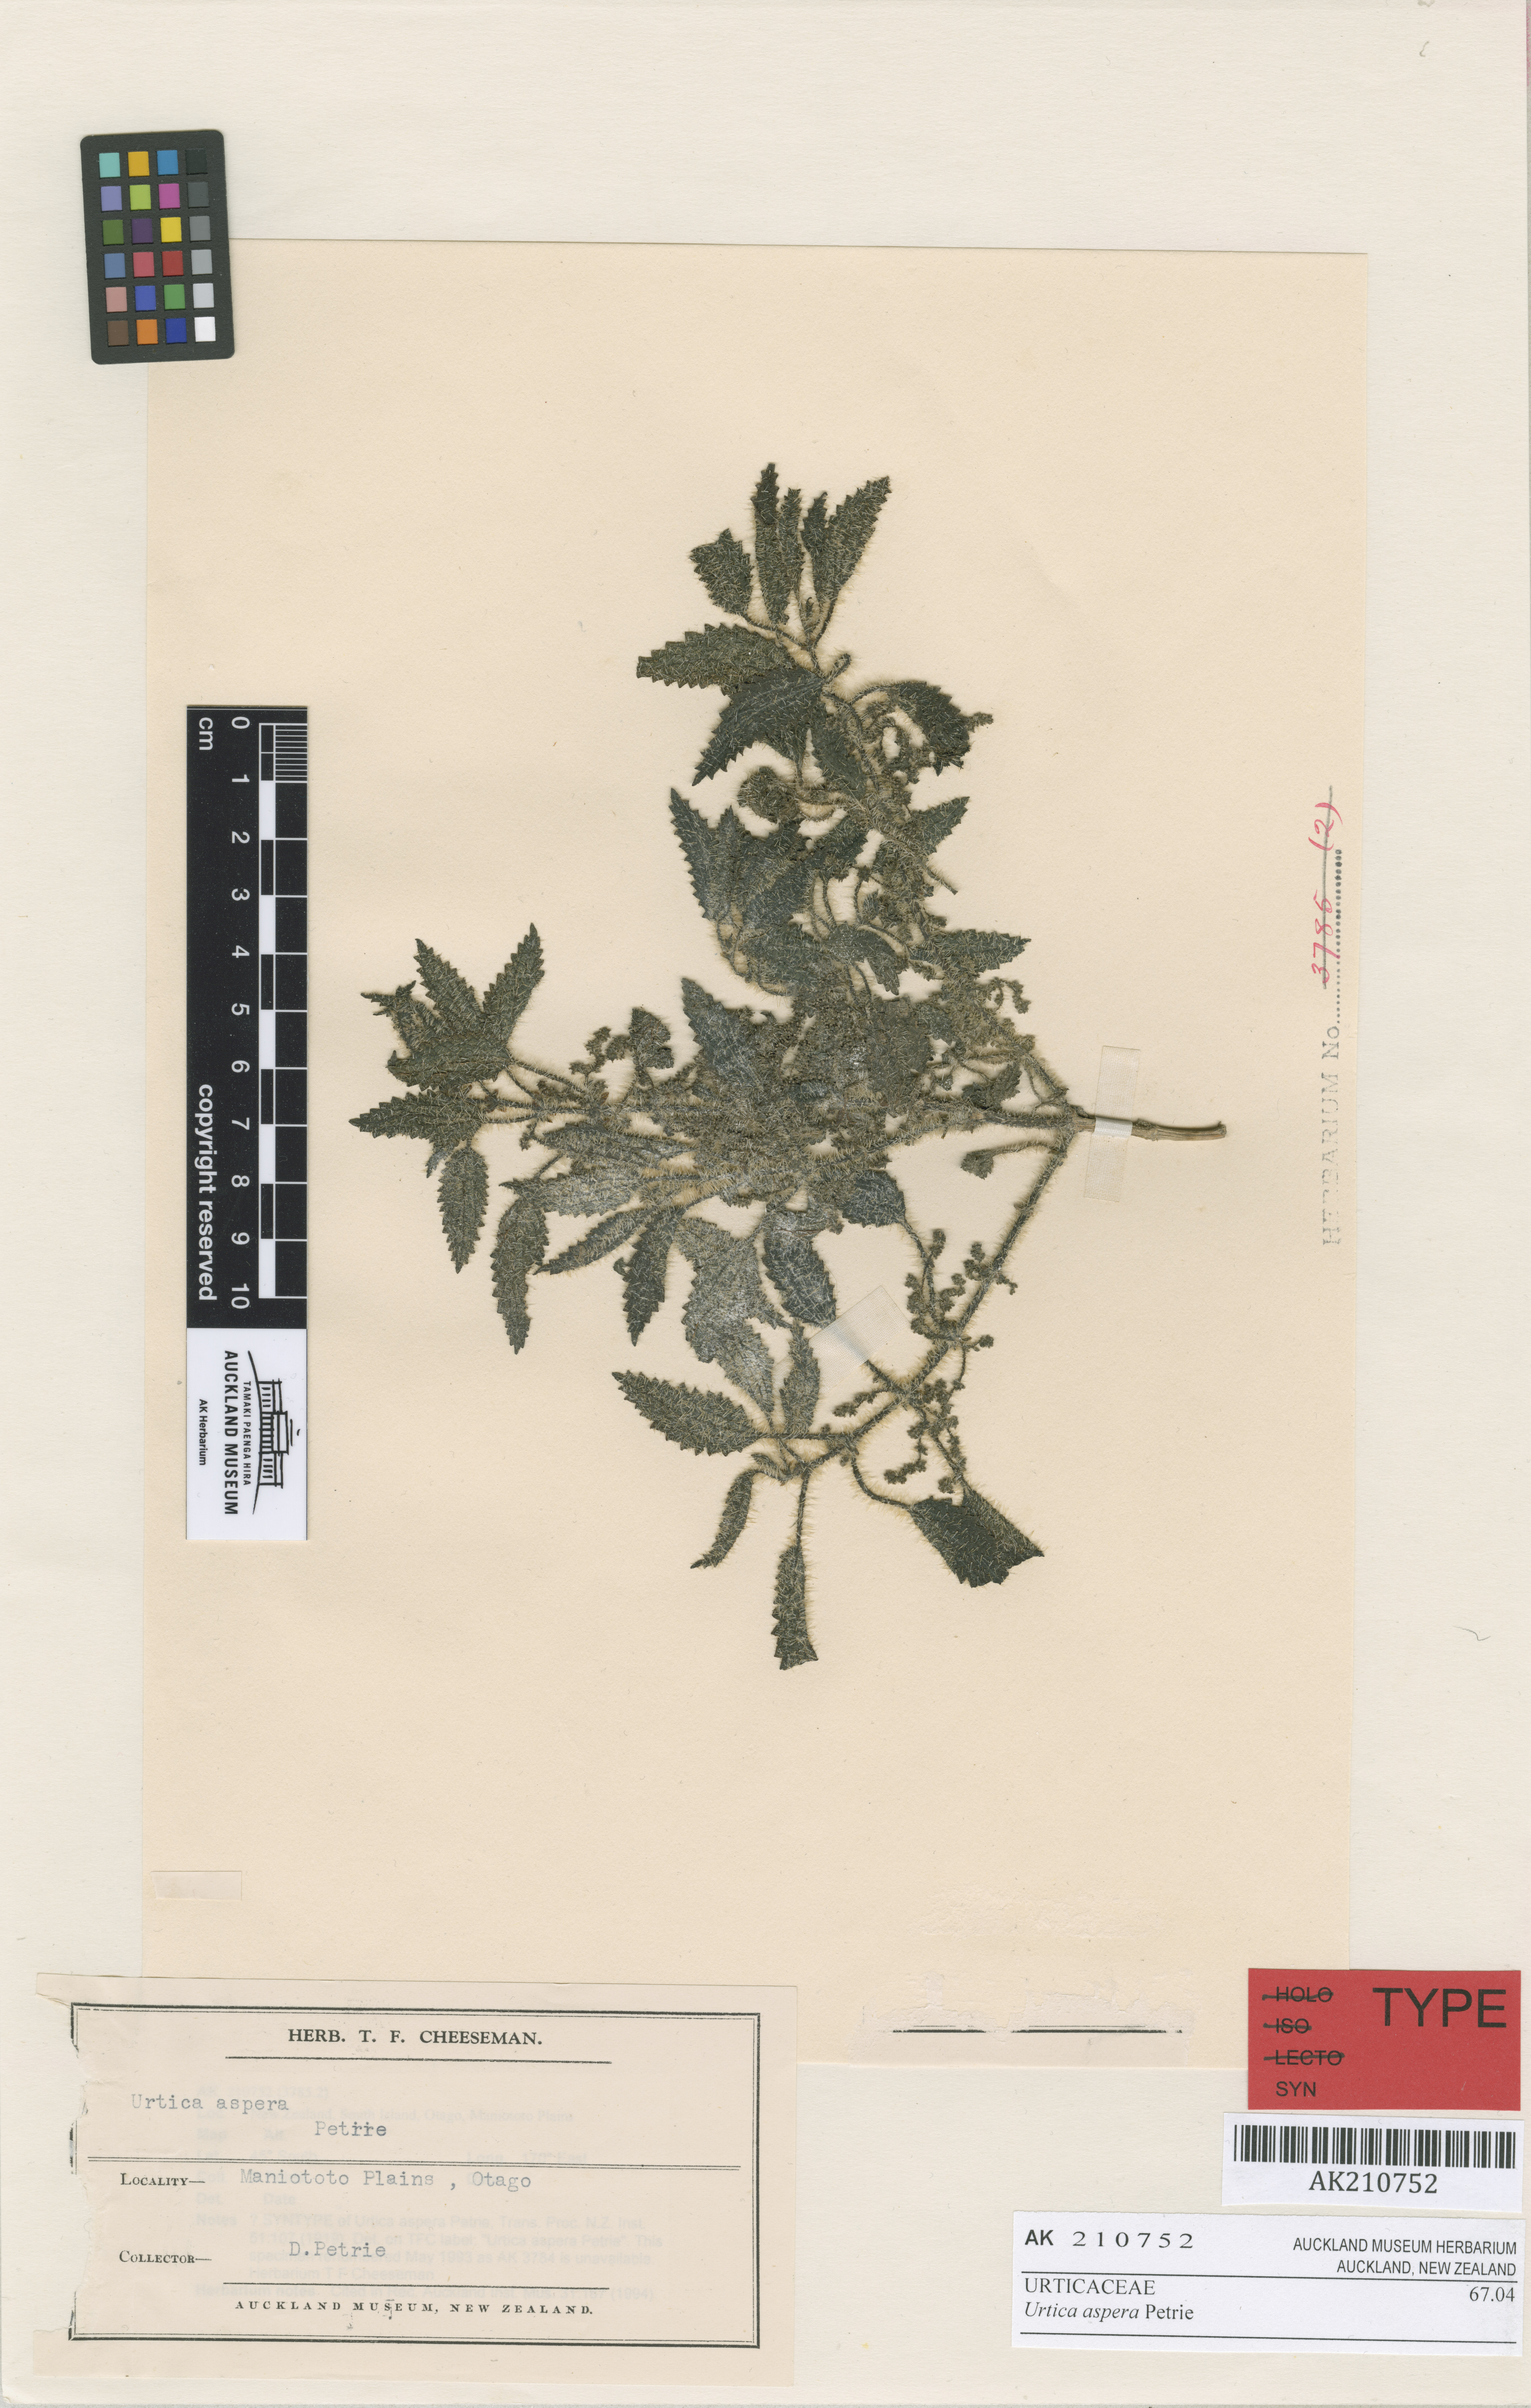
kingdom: Plantae
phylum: Tracheophyta
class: Magnoliopsida
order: Rosales
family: Urticaceae
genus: Urtica
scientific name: Urtica aspera
